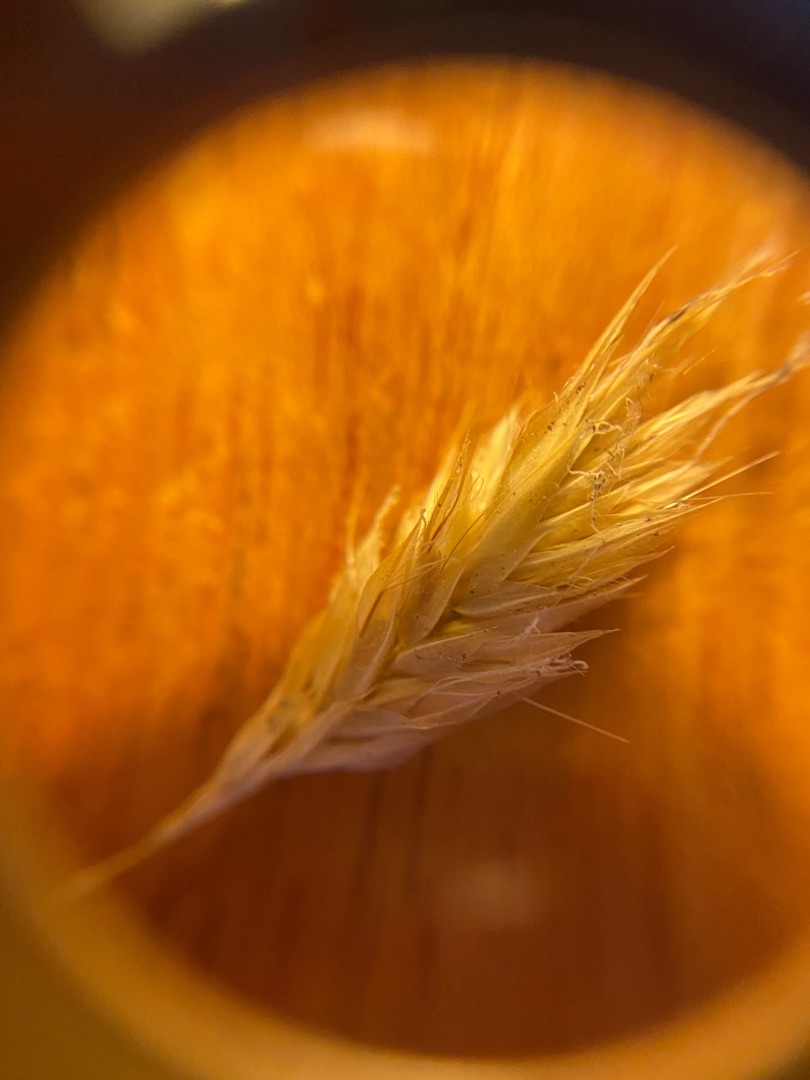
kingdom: Plantae
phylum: Tracheophyta
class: Liliopsida
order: Poales
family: Poaceae
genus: Anthoxanthum
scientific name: Anthoxanthum odoratum
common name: Vellugtende gulaks
